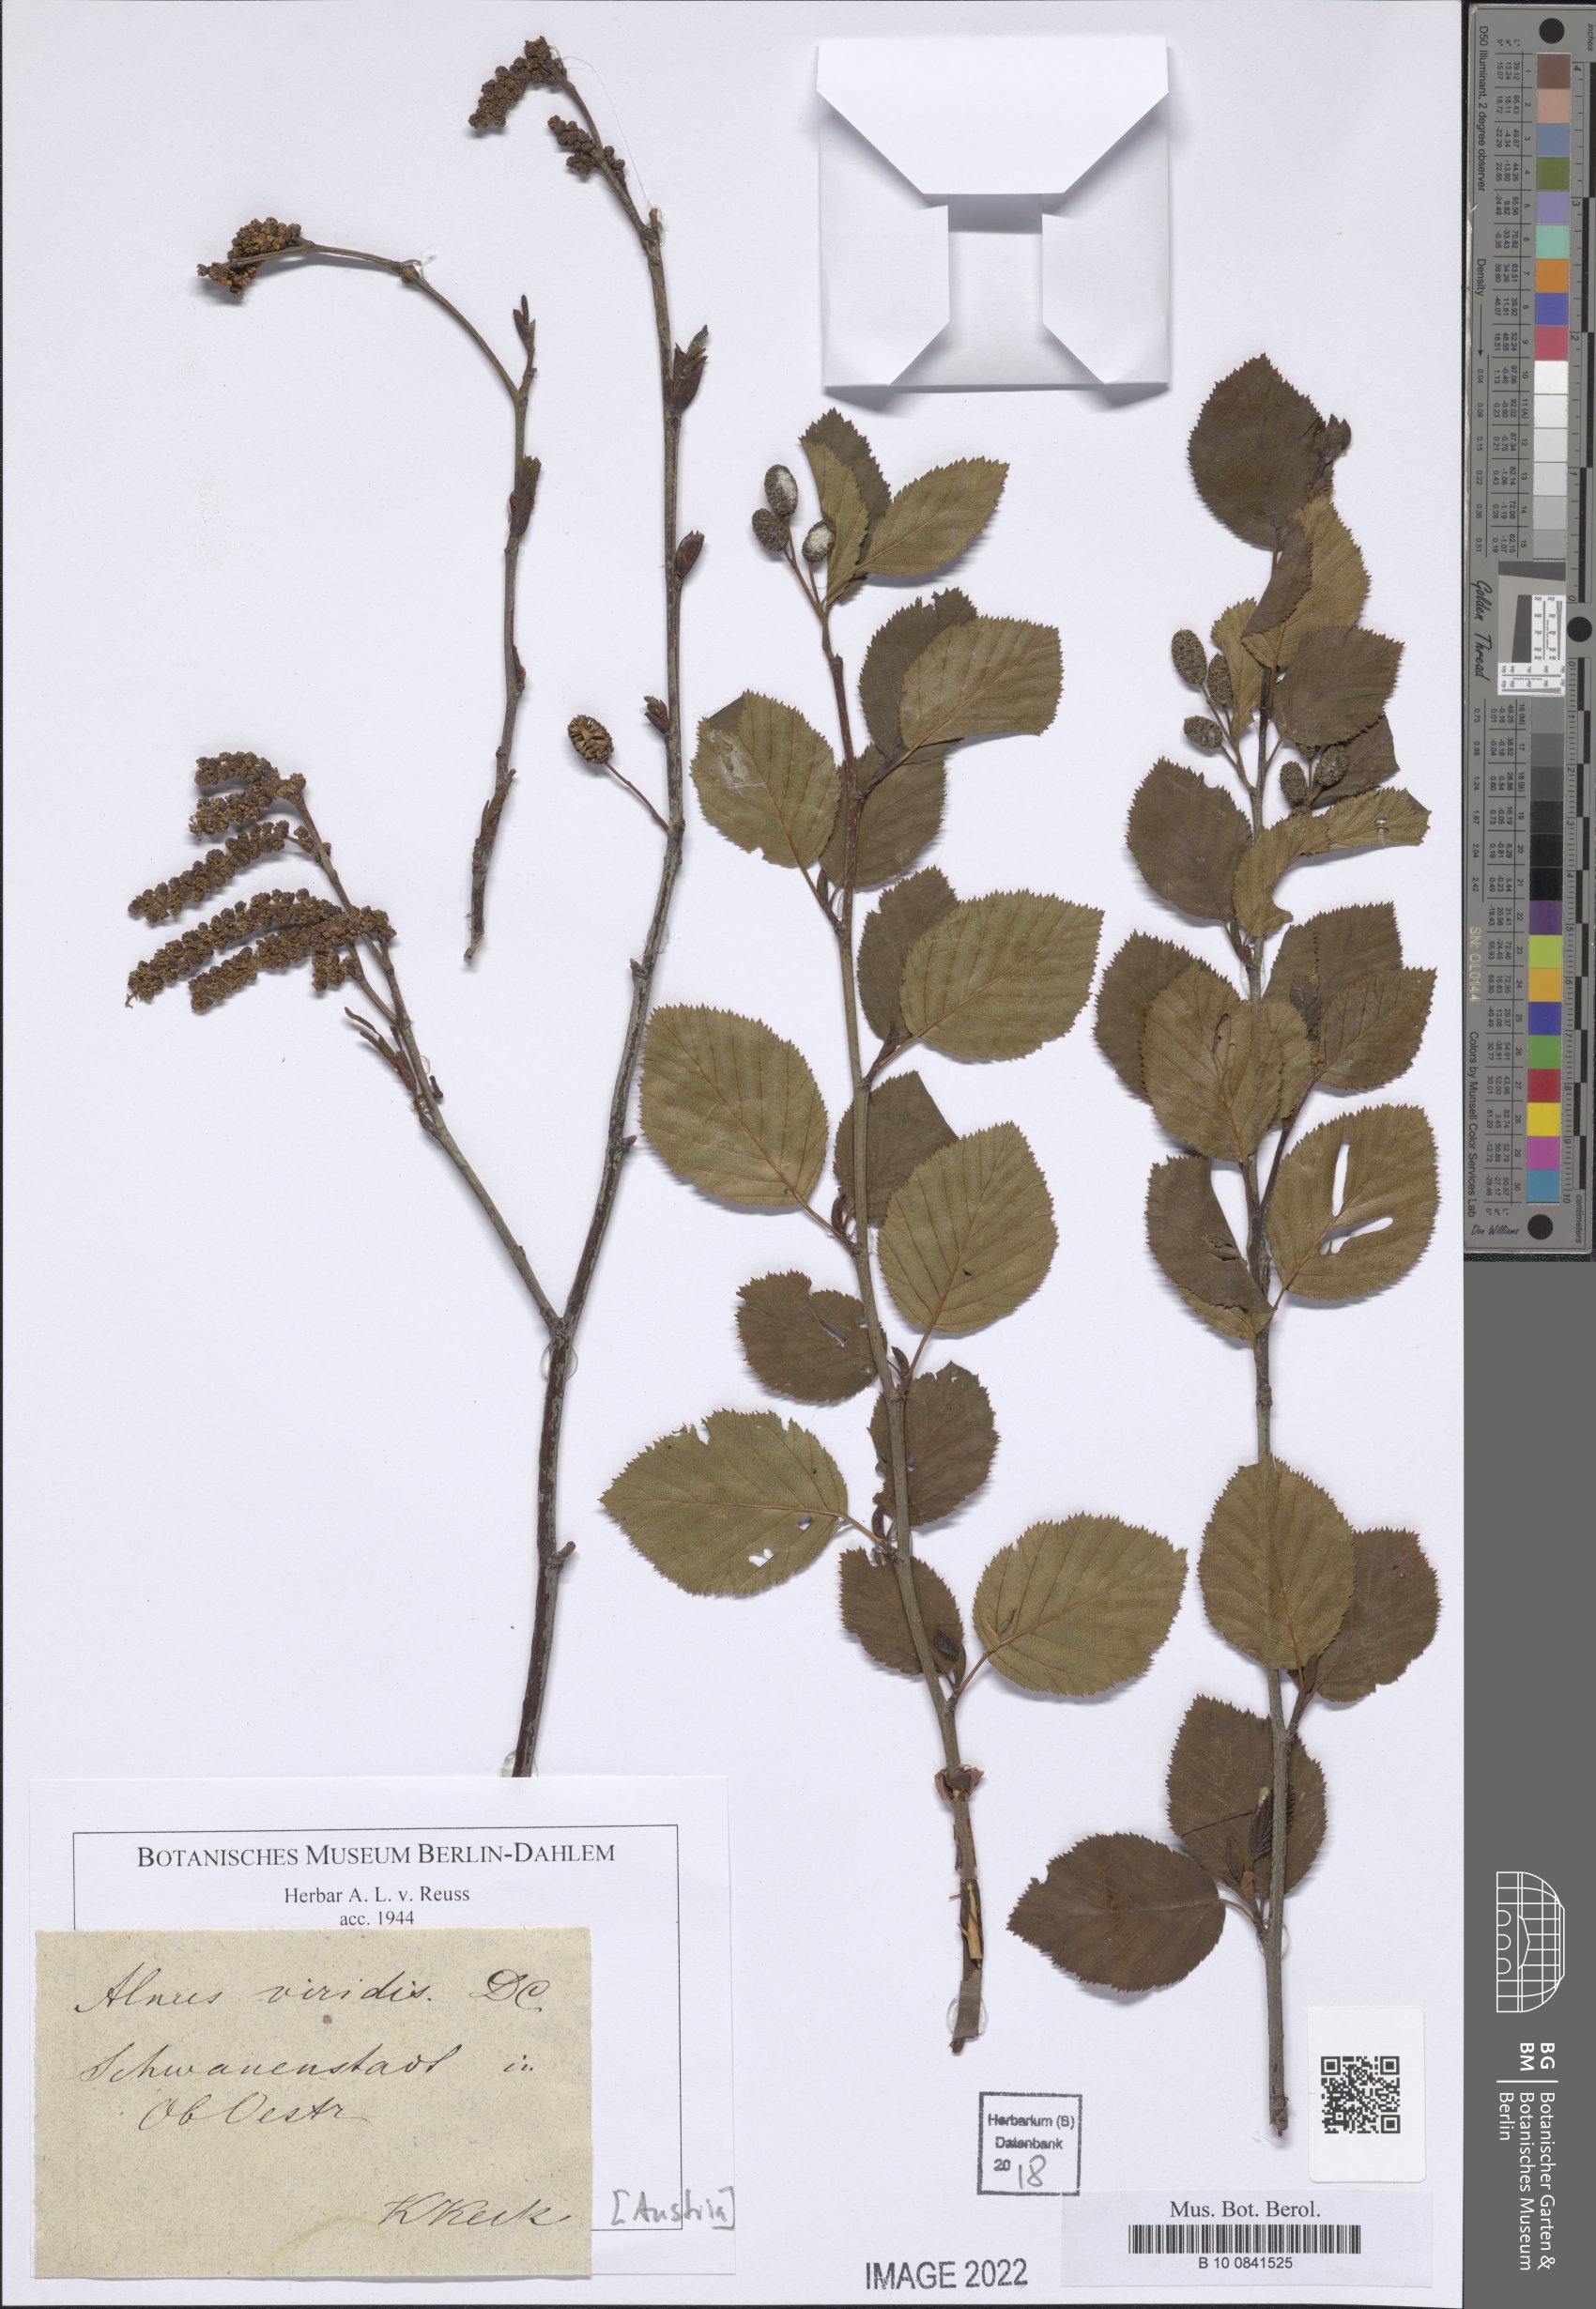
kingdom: Plantae
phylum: Tracheophyta
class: Magnoliopsida
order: Fagales
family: Betulaceae
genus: Alnus
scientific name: Alnus alnobetula
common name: Green alder
